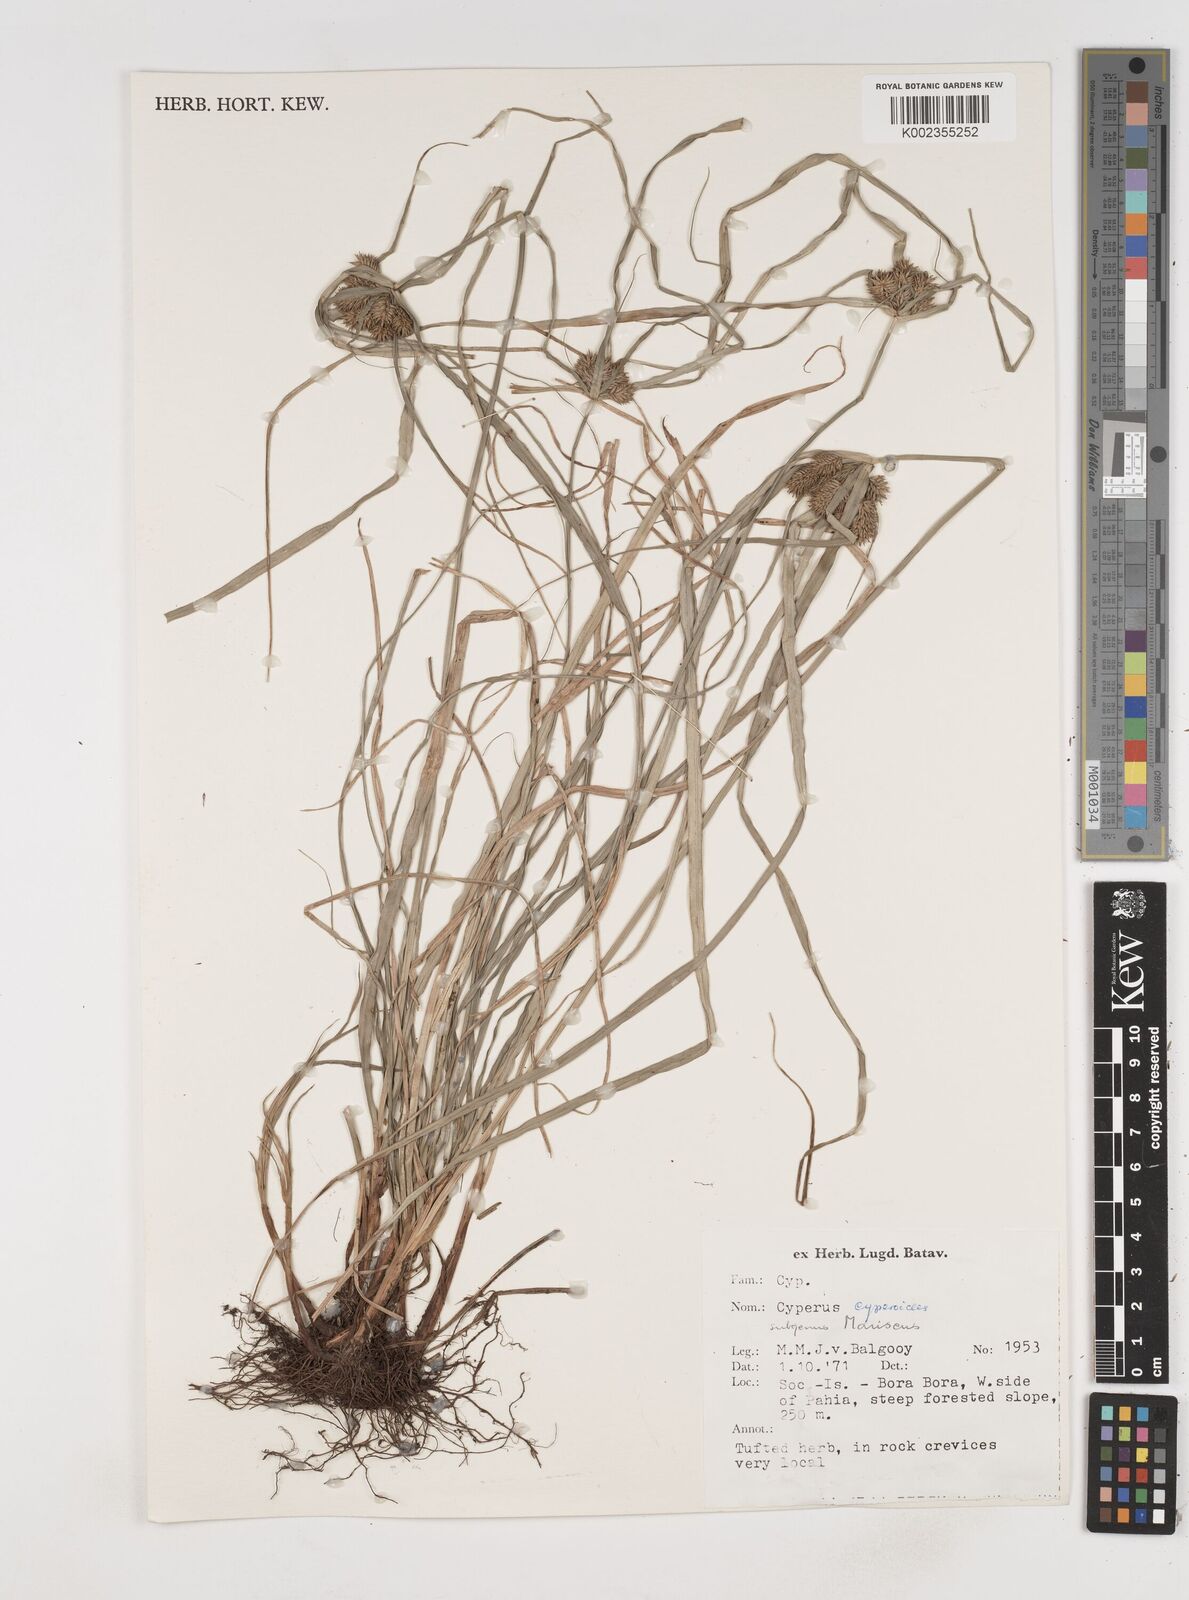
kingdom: Plantae
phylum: Tracheophyta
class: Liliopsida
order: Poales
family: Cyperaceae
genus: Cyperus
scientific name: Cyperus
